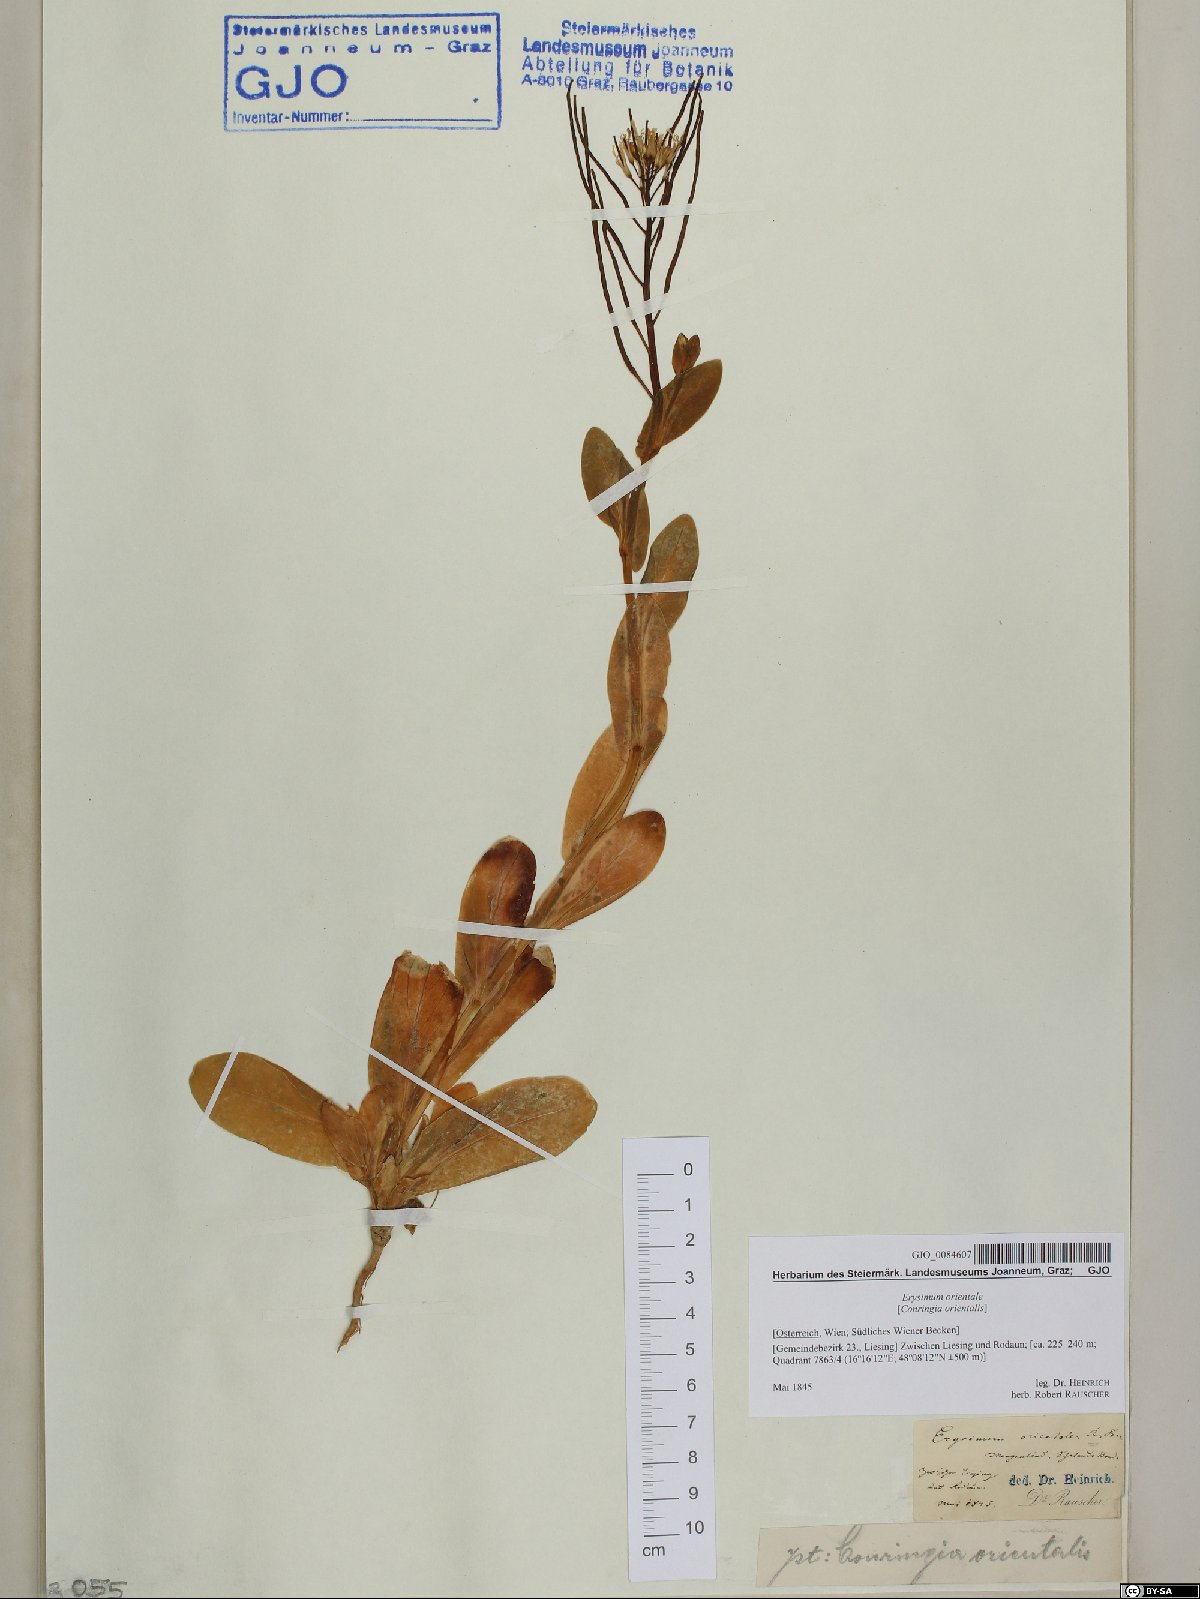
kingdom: Plantae
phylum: Tracheophyta
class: Magnoliopsida
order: Brassicales
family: Brassicaceae
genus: Conringia
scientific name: Conringia orientalis
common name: Hare's ear mustard
